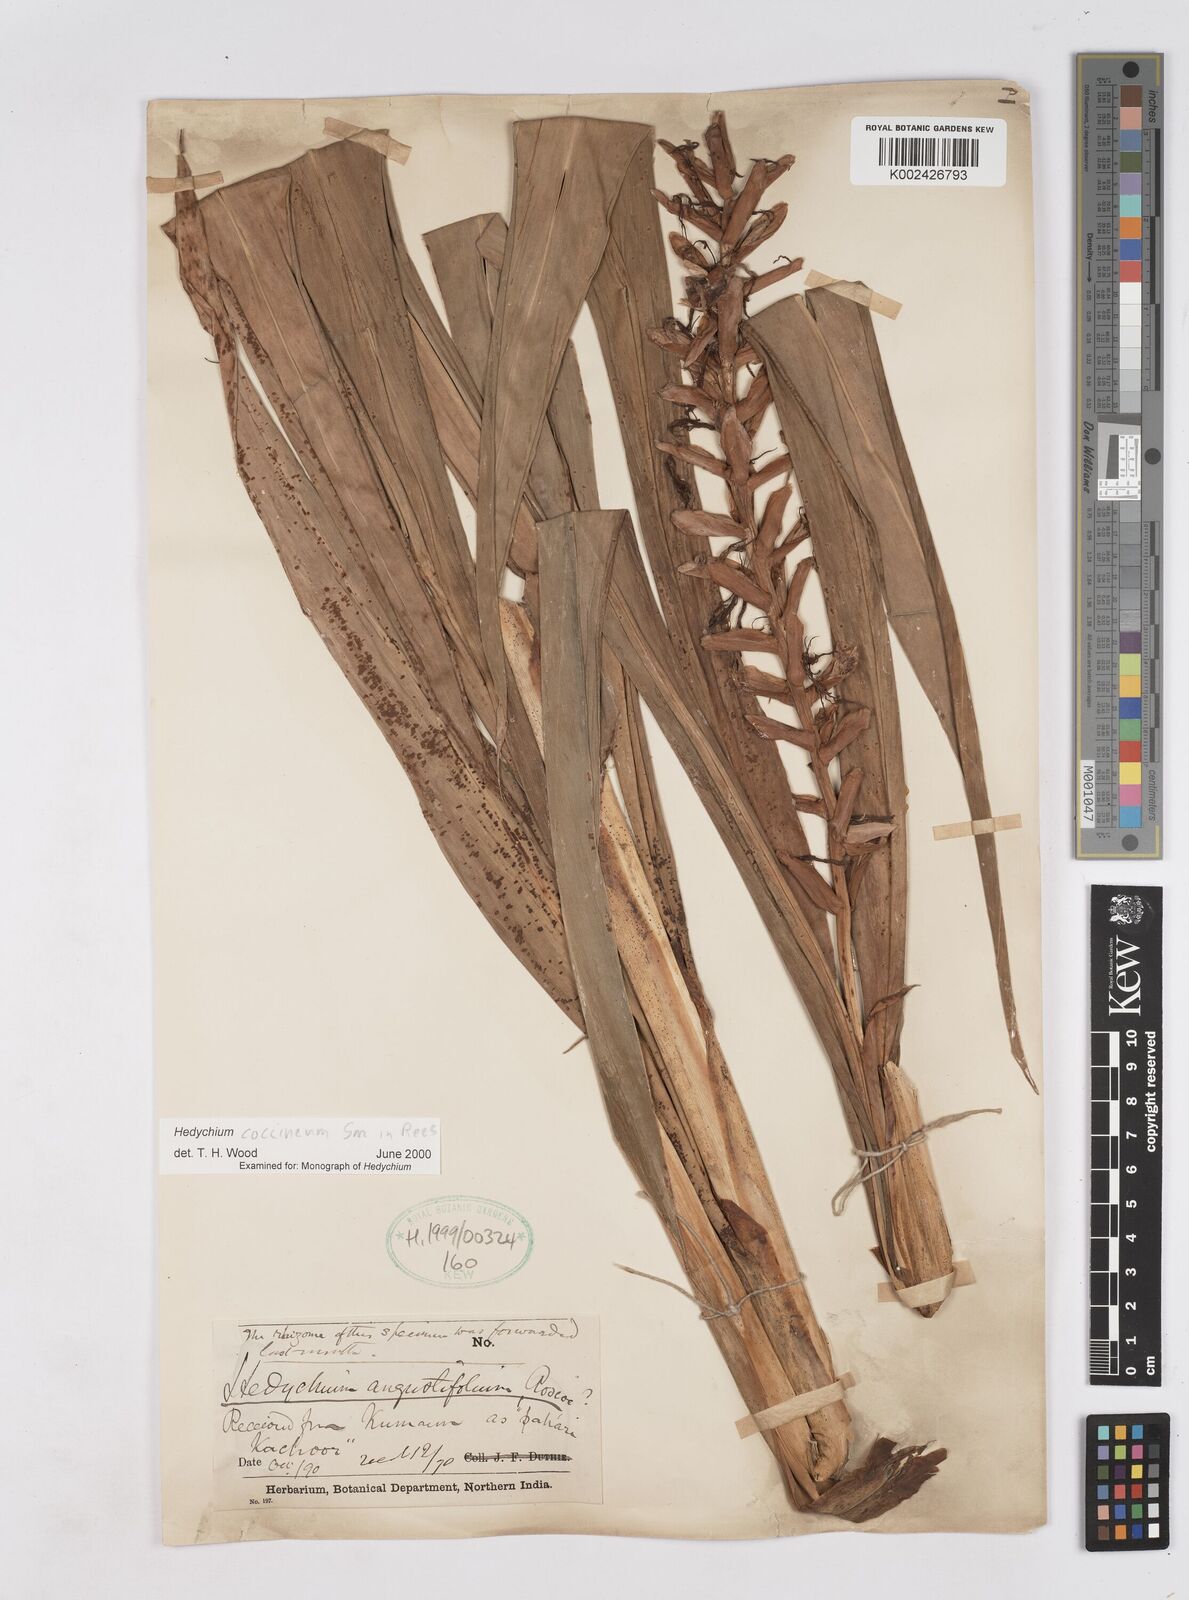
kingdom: Plantae
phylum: Tracheophyta
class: Liliopsida
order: Zingiberales
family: Zingiberaceae
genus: Hedychium
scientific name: Hedychium coccineum
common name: Red ginger-lily
